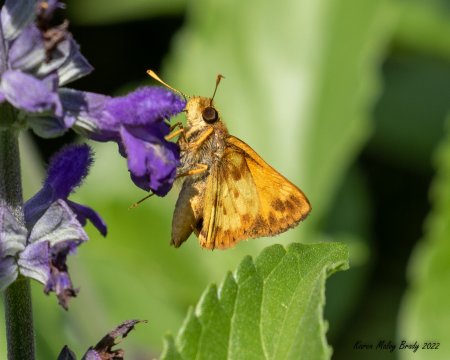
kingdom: Animalia
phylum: Arthropoda
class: Insecta
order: Lepidoptera
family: Hesperiidae
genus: Lon
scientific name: Lon zabulon
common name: Zabulon Skipper
